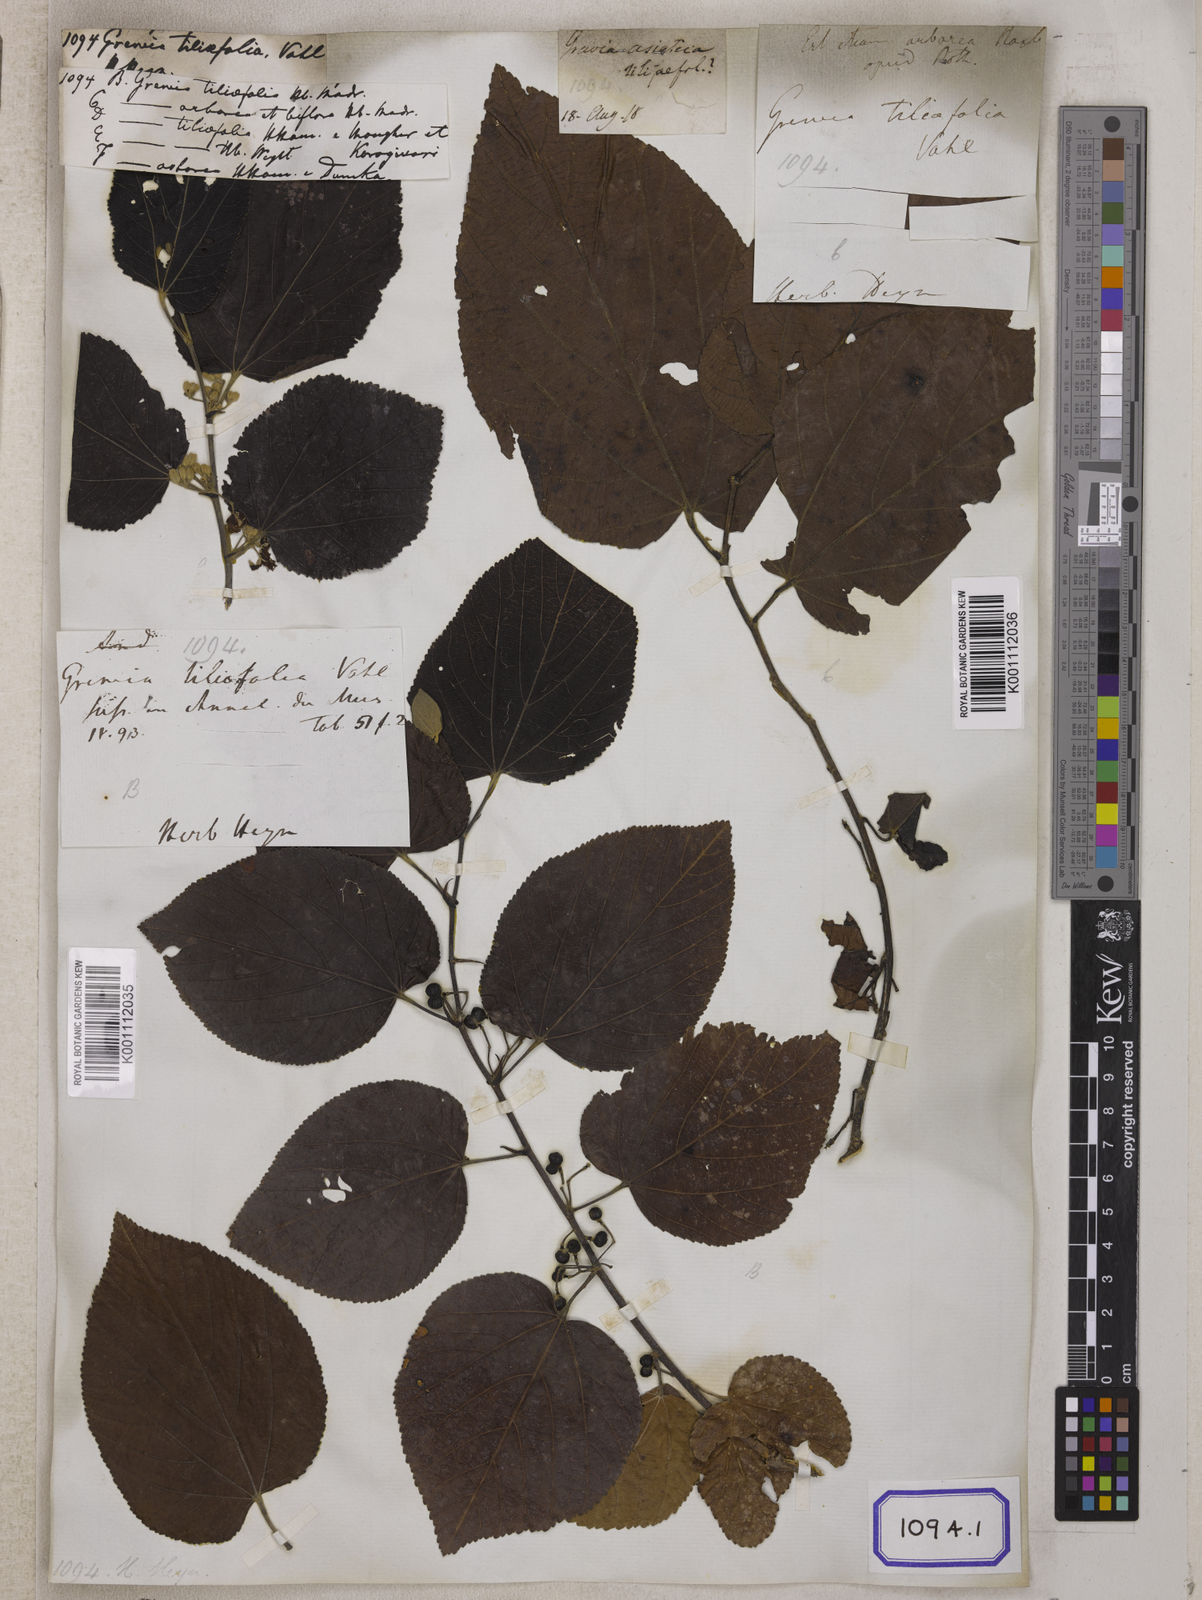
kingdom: Plantae
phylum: Tracheophyta
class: Magnoliopsida
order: Malvales
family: Malvaceae
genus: Grewia
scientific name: Grewia tiliifolia
